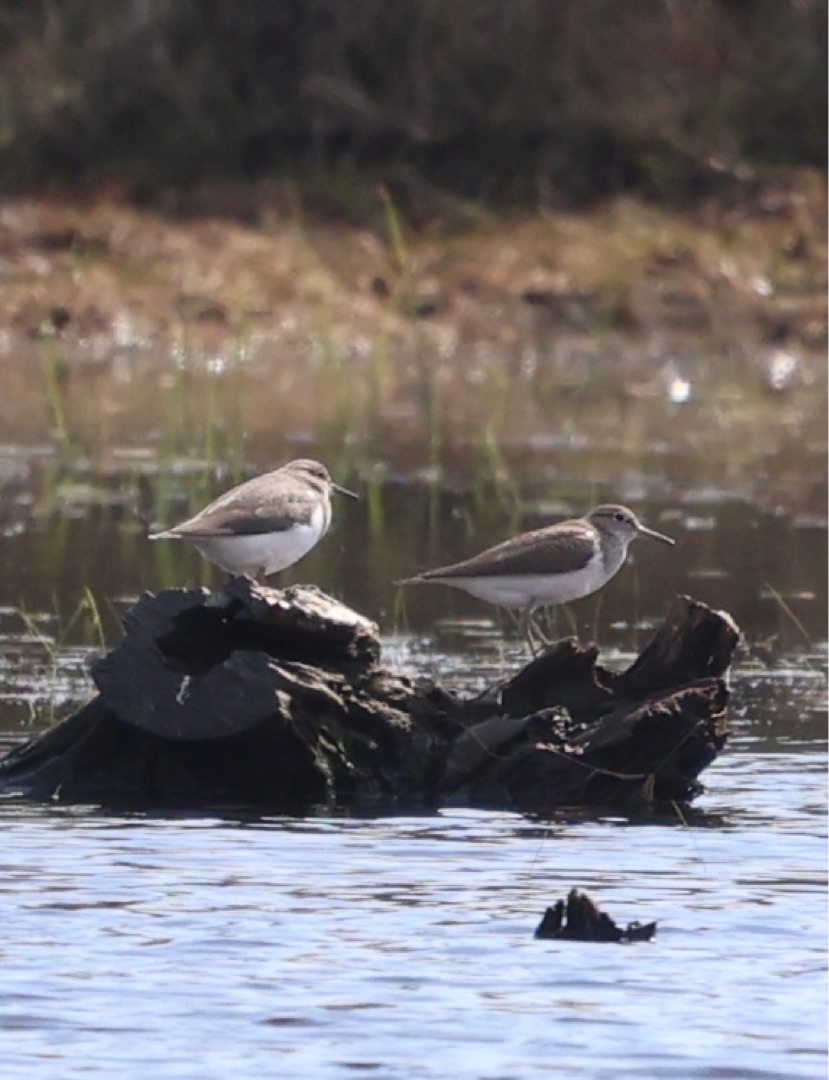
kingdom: Animalia
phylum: Chordata
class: Aves
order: Charadriiformes
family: Scolopacidae
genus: Actitis
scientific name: Actitis hypoleucos
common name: Mudderklire
